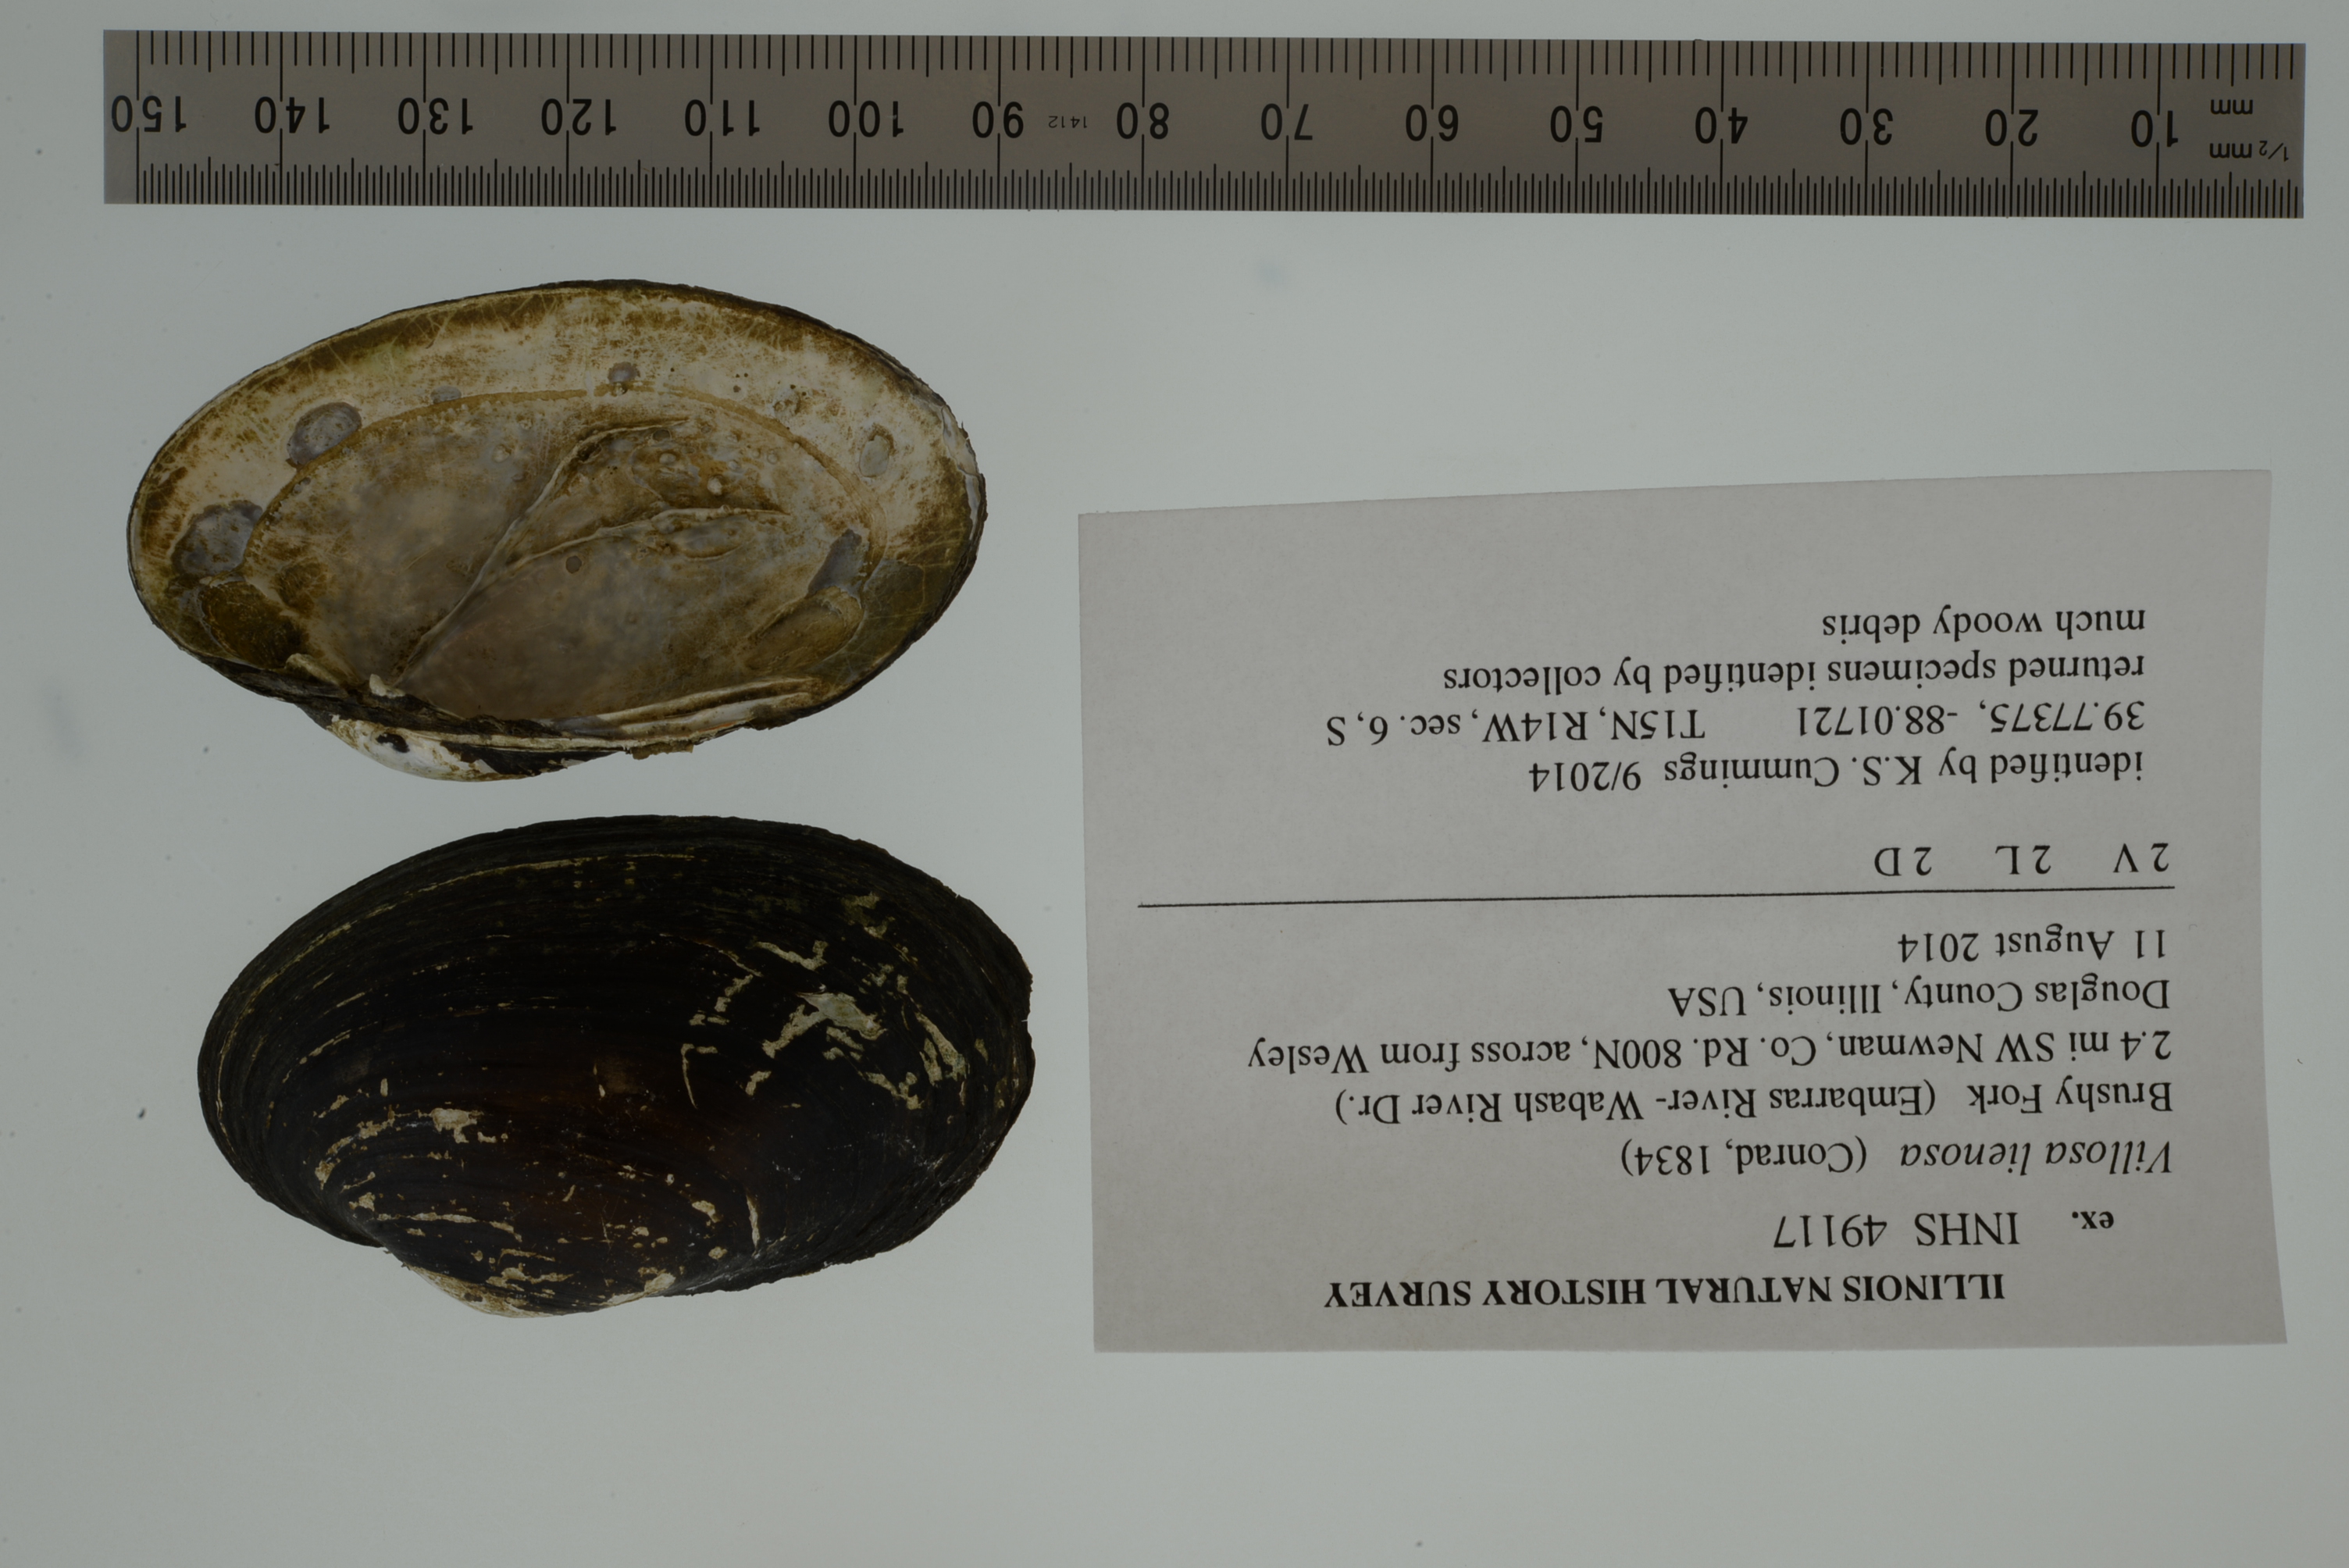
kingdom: Animalia
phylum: Mollusca
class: Bivalvia
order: Unionida
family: Unionidae
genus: Leaunio
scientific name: Leaunio lienosus
